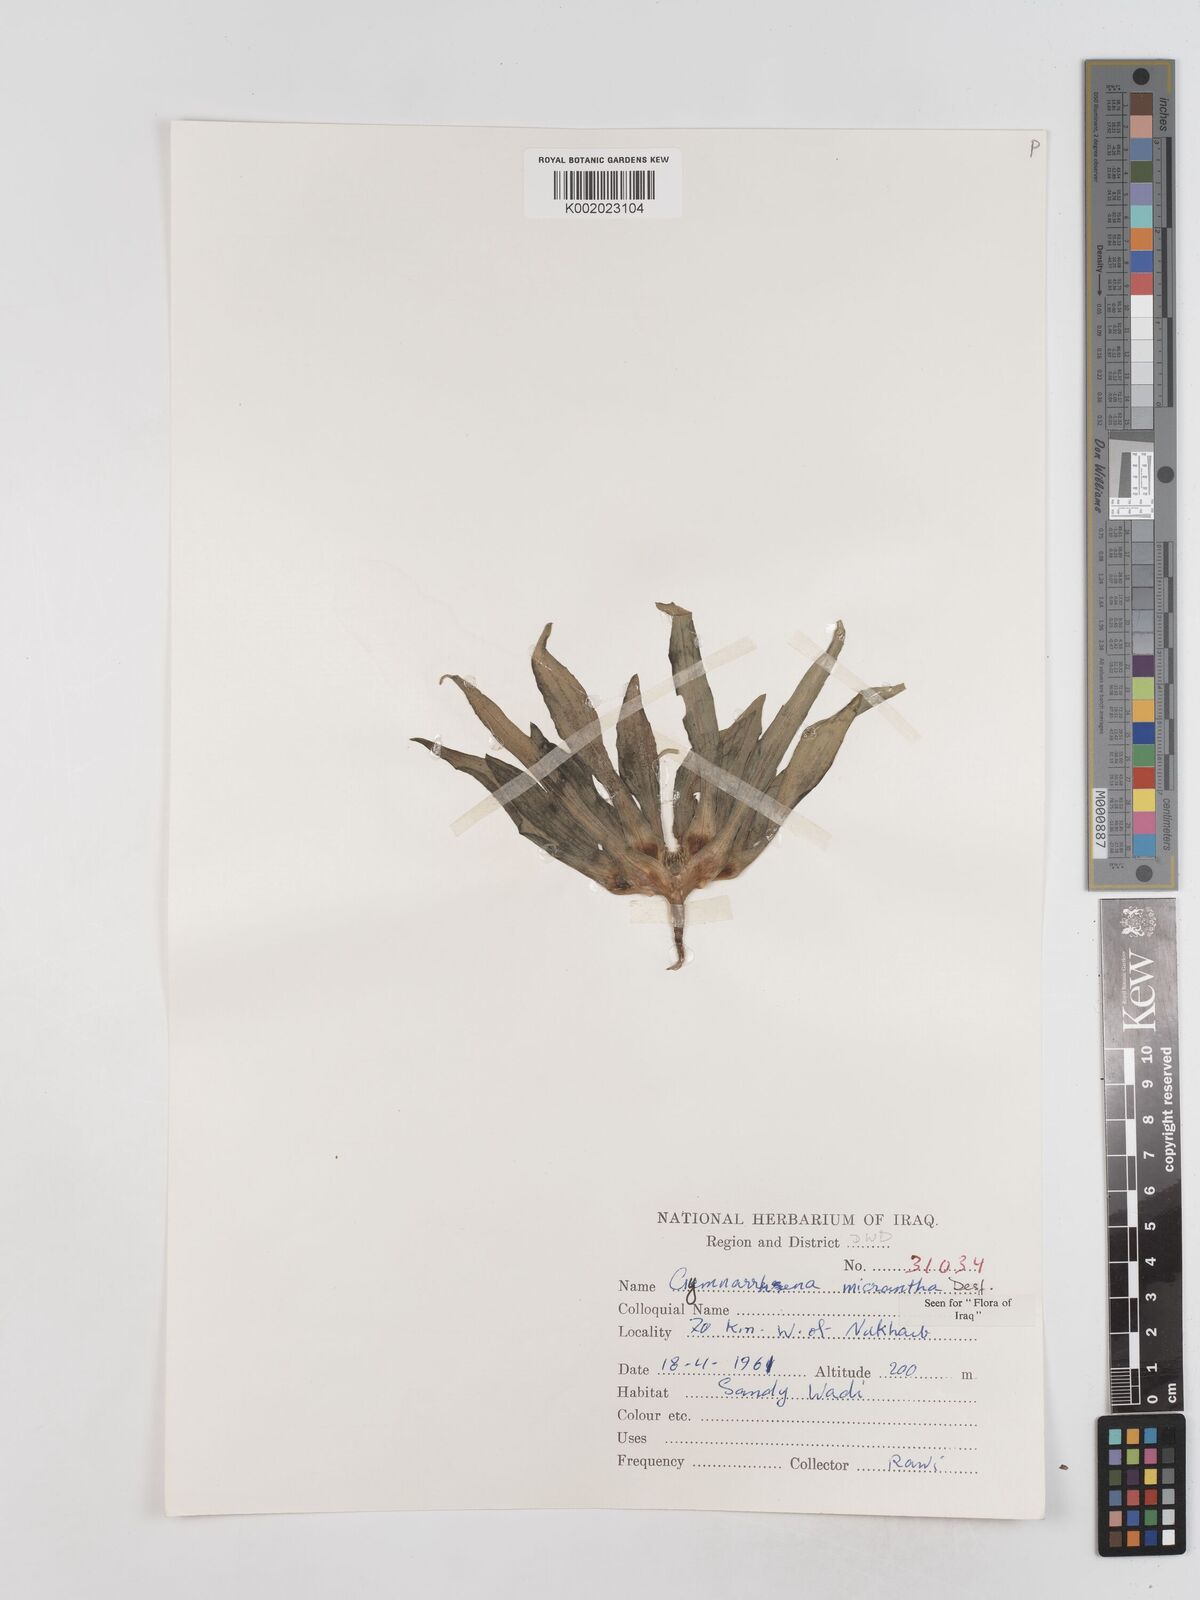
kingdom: Plantae
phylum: Tracheophyta
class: Magnoliopsida
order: Asterales
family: Asteraceae
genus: Gymnarrhena
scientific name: Gymnarrhena micrantha
